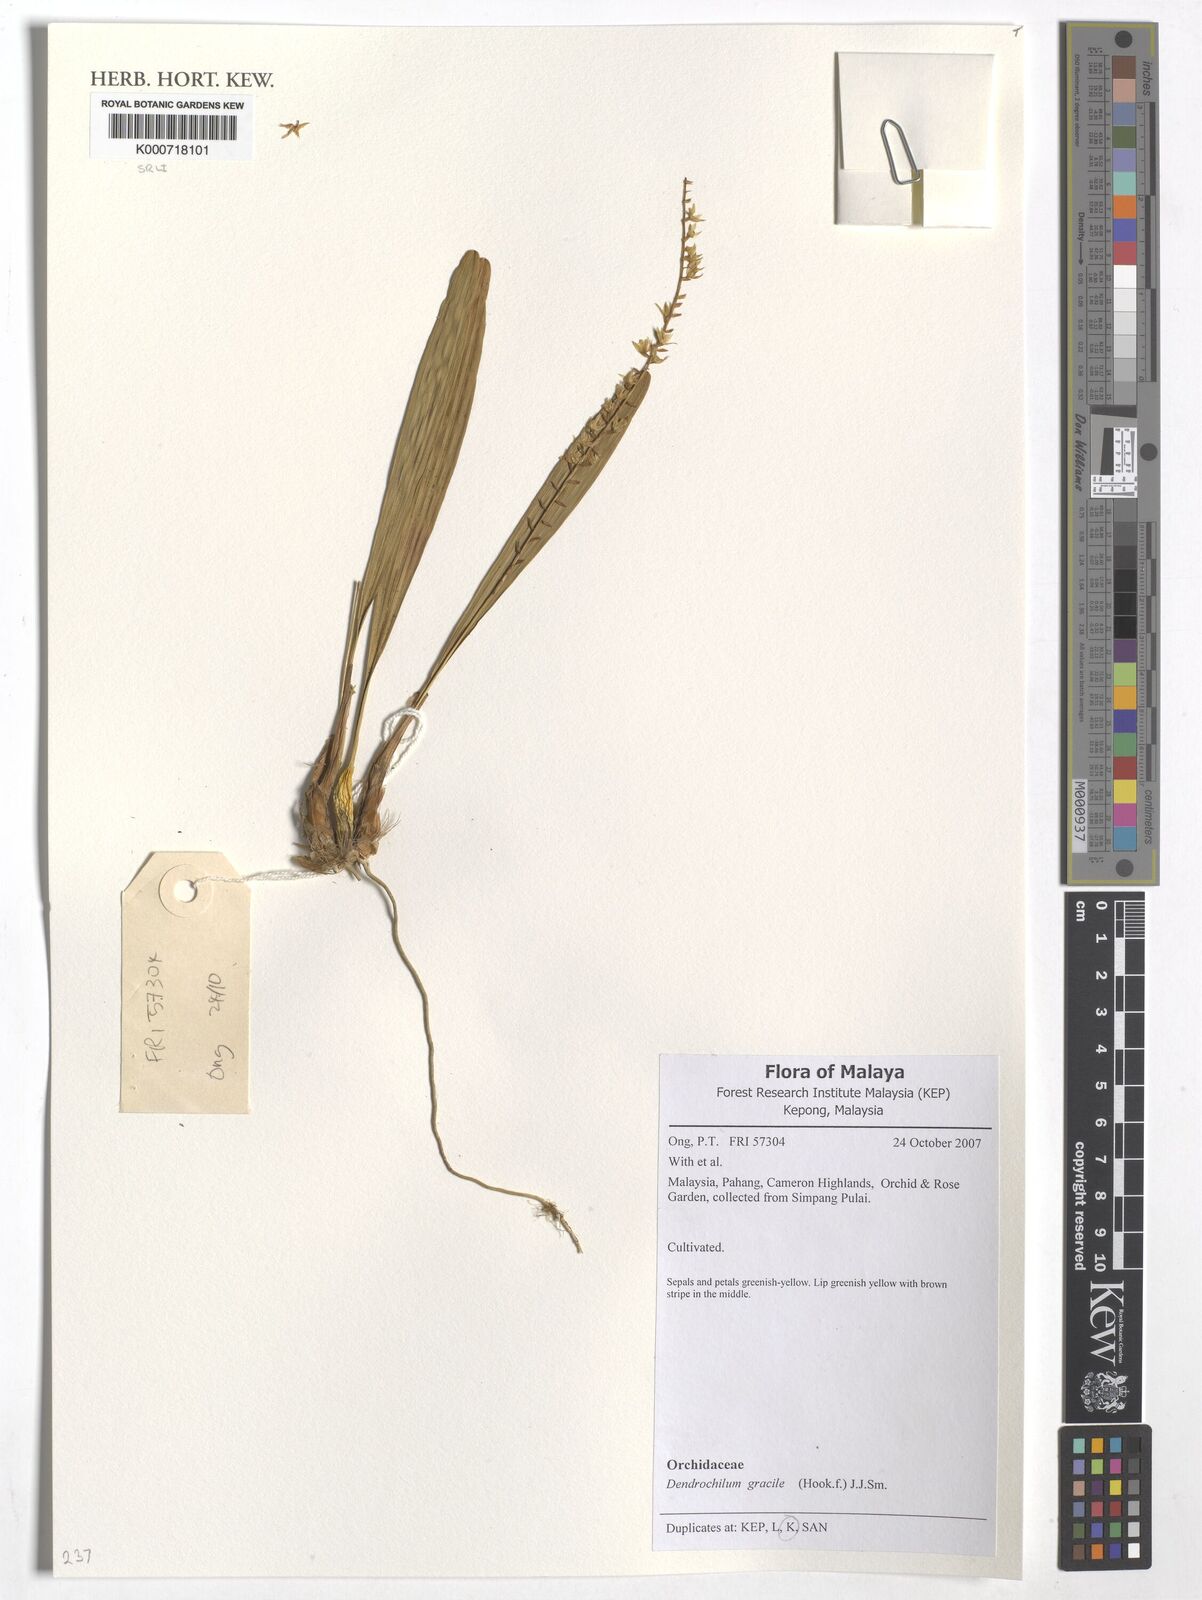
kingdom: Plantae
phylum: Tracheophyta
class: Liliopsida
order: Asparagales
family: Orchidaceae
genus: Coelogyne
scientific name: Coelogyne gracilis
